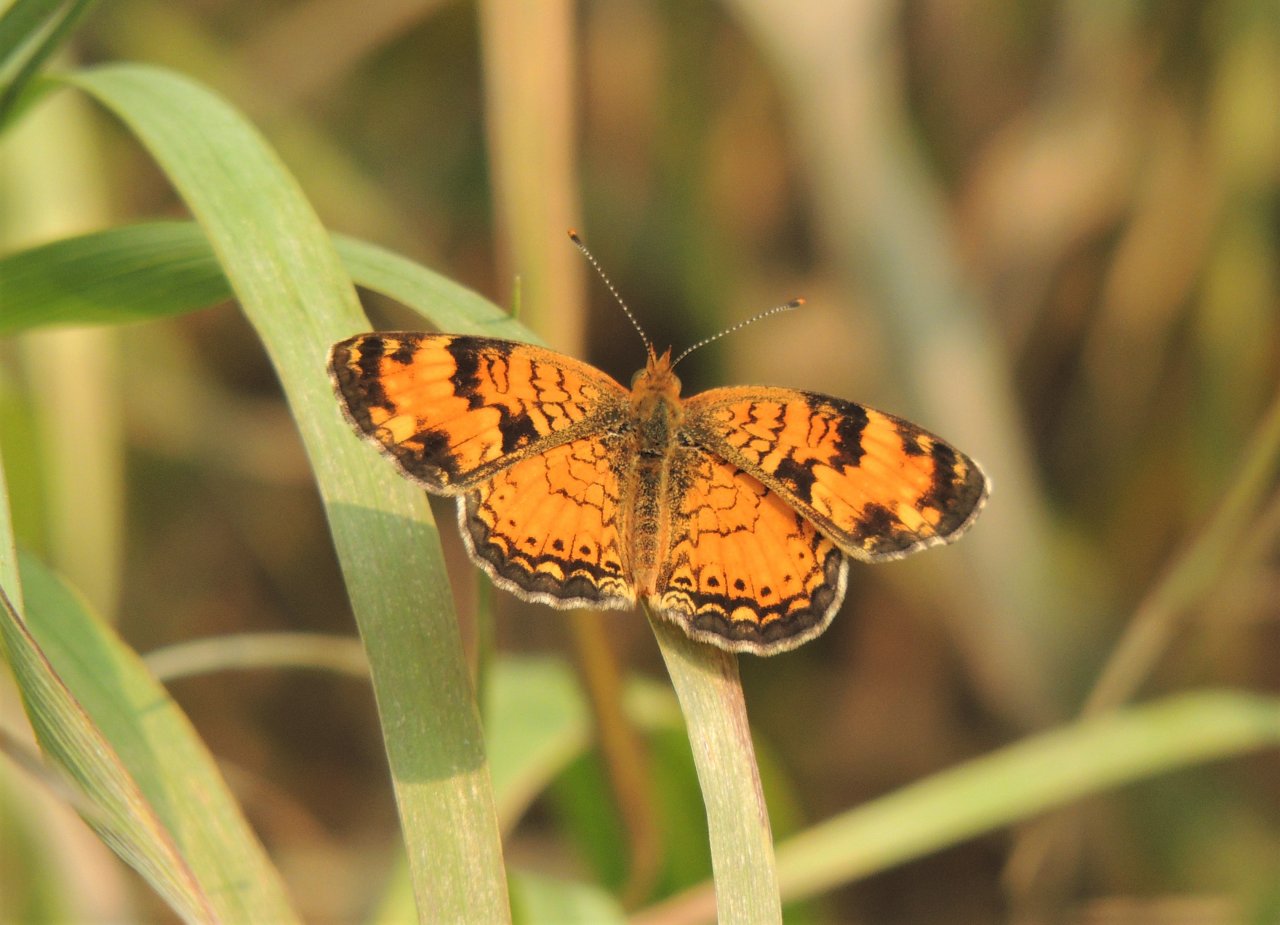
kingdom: Animalia
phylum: Arthropoda
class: Insecta
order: Lepidoptera
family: Nymphalidae
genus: Phyciodes
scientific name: Phyciodes tharos
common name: Northern Crescent
